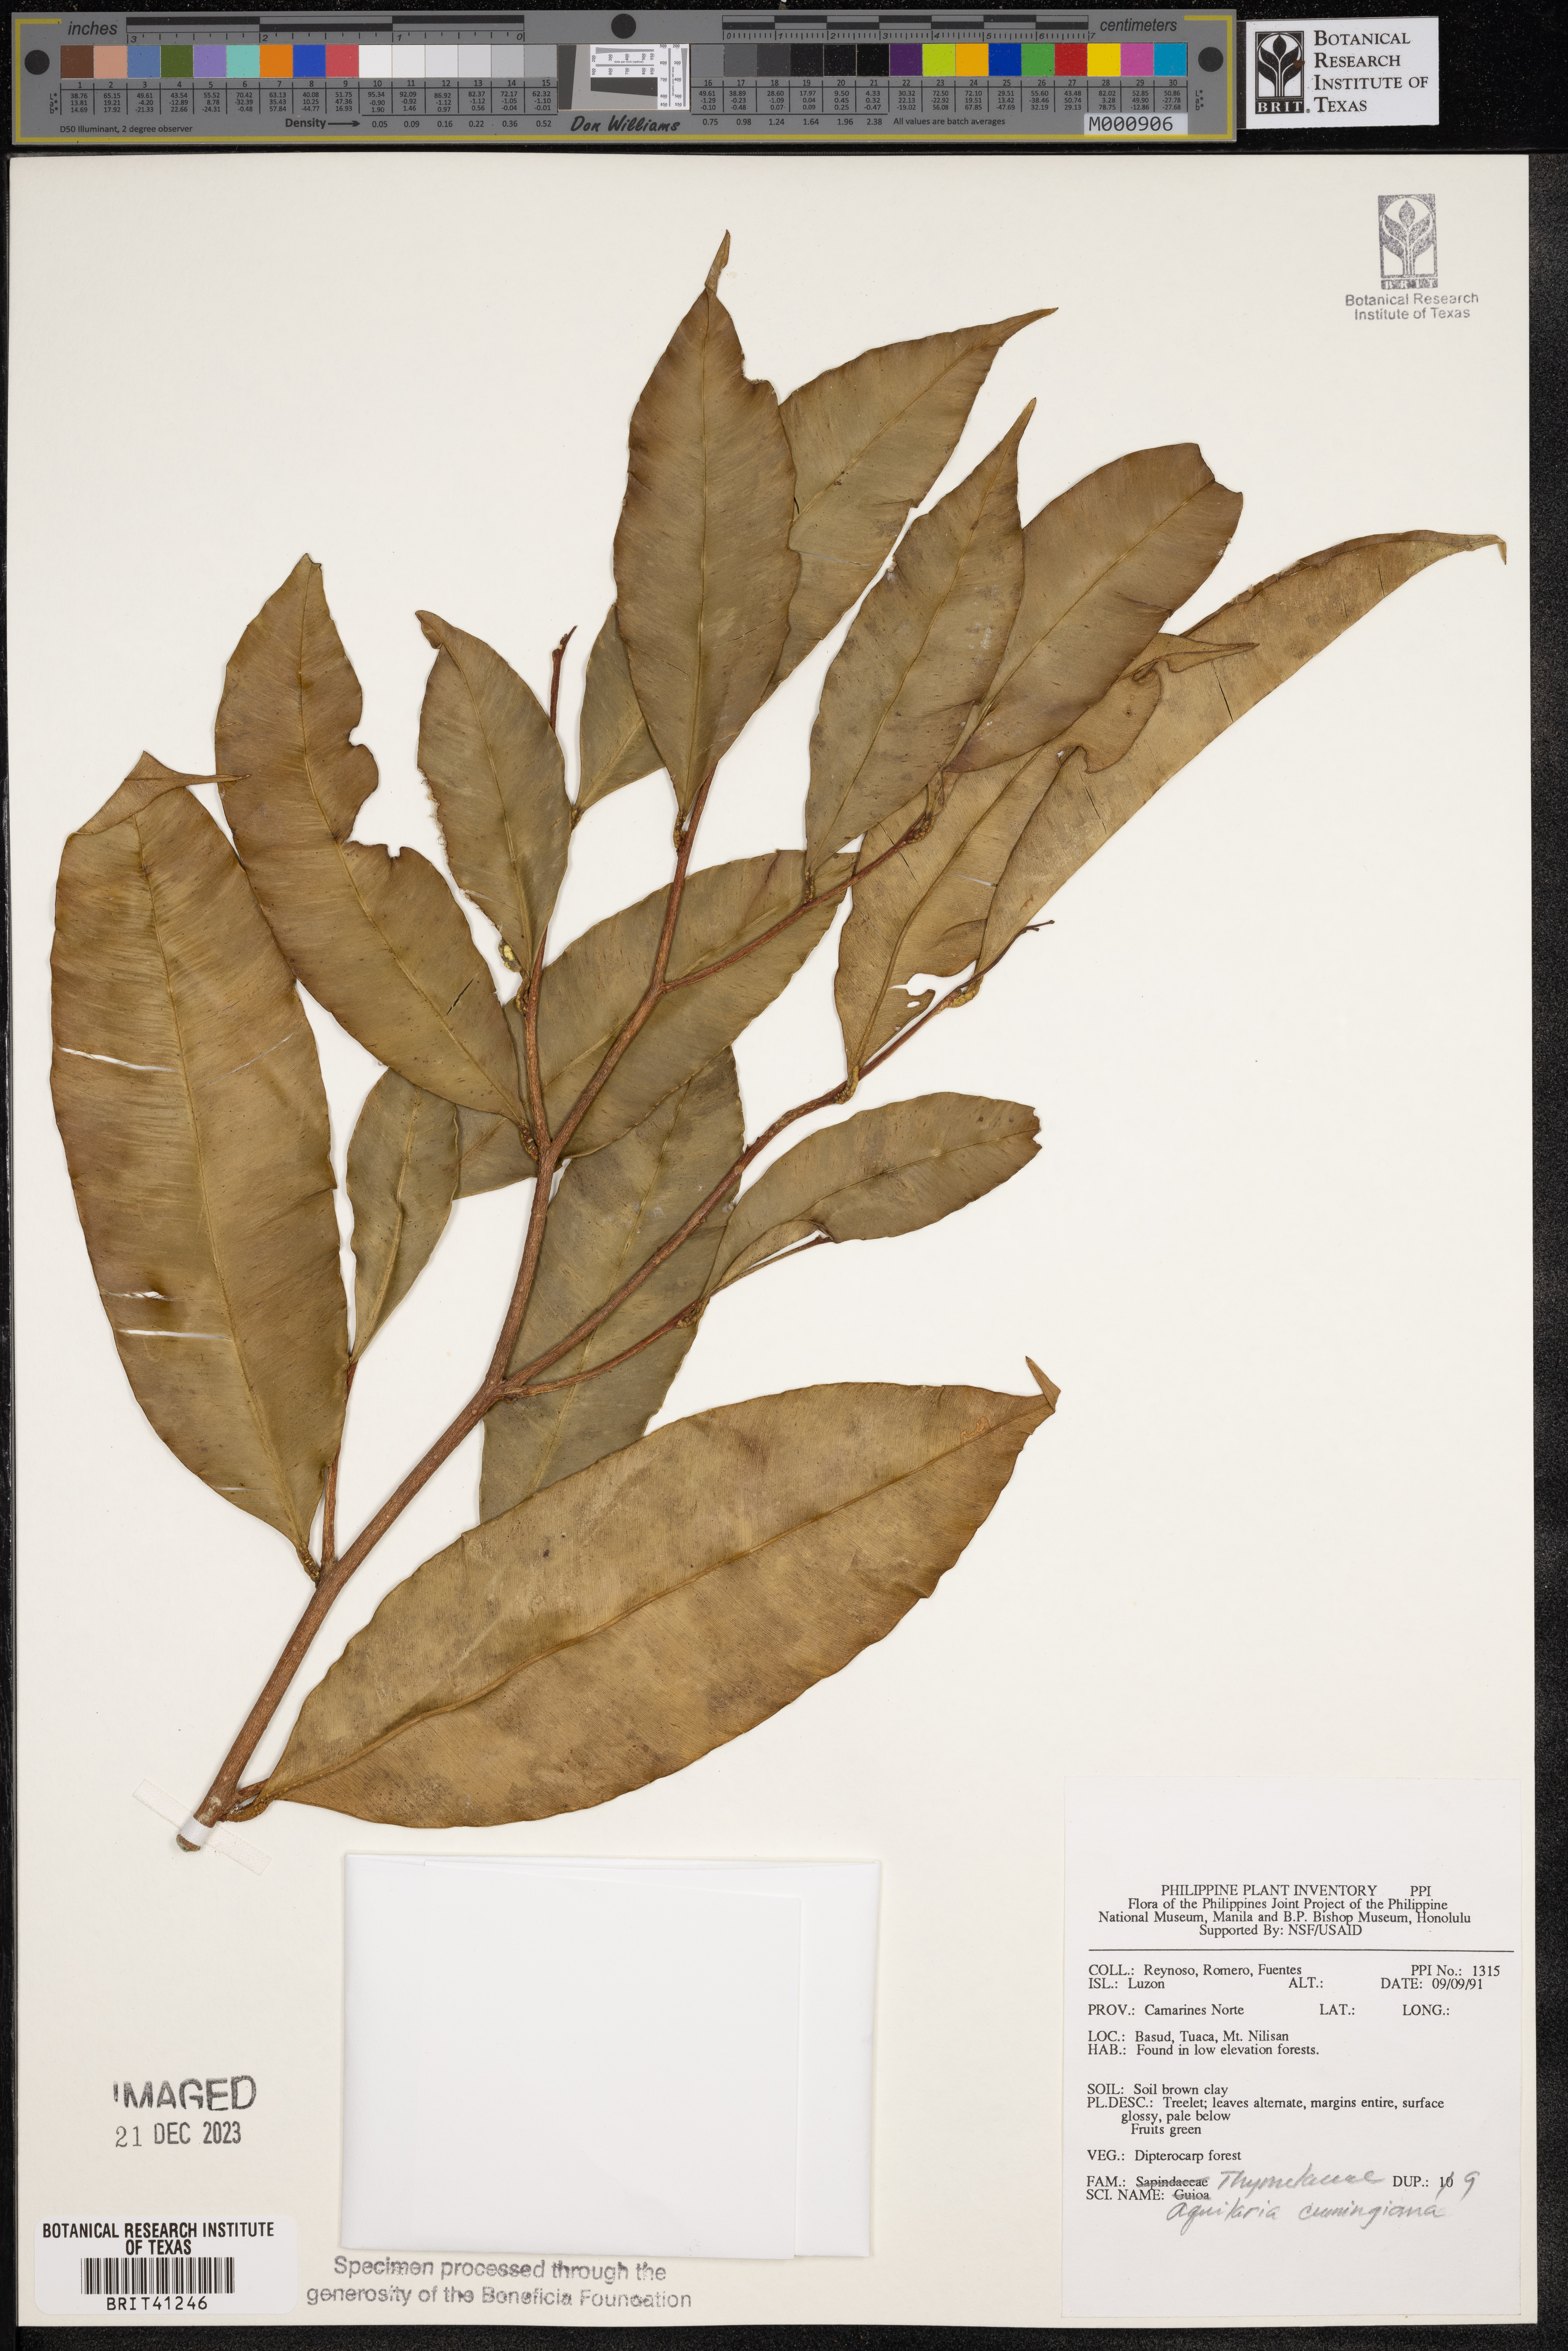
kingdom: Plantae
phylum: Tracheophyta
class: Magnoliopsida
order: Malvales
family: Thymelaeaceae
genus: Aquilaria
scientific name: Aquilaria cumingiana
